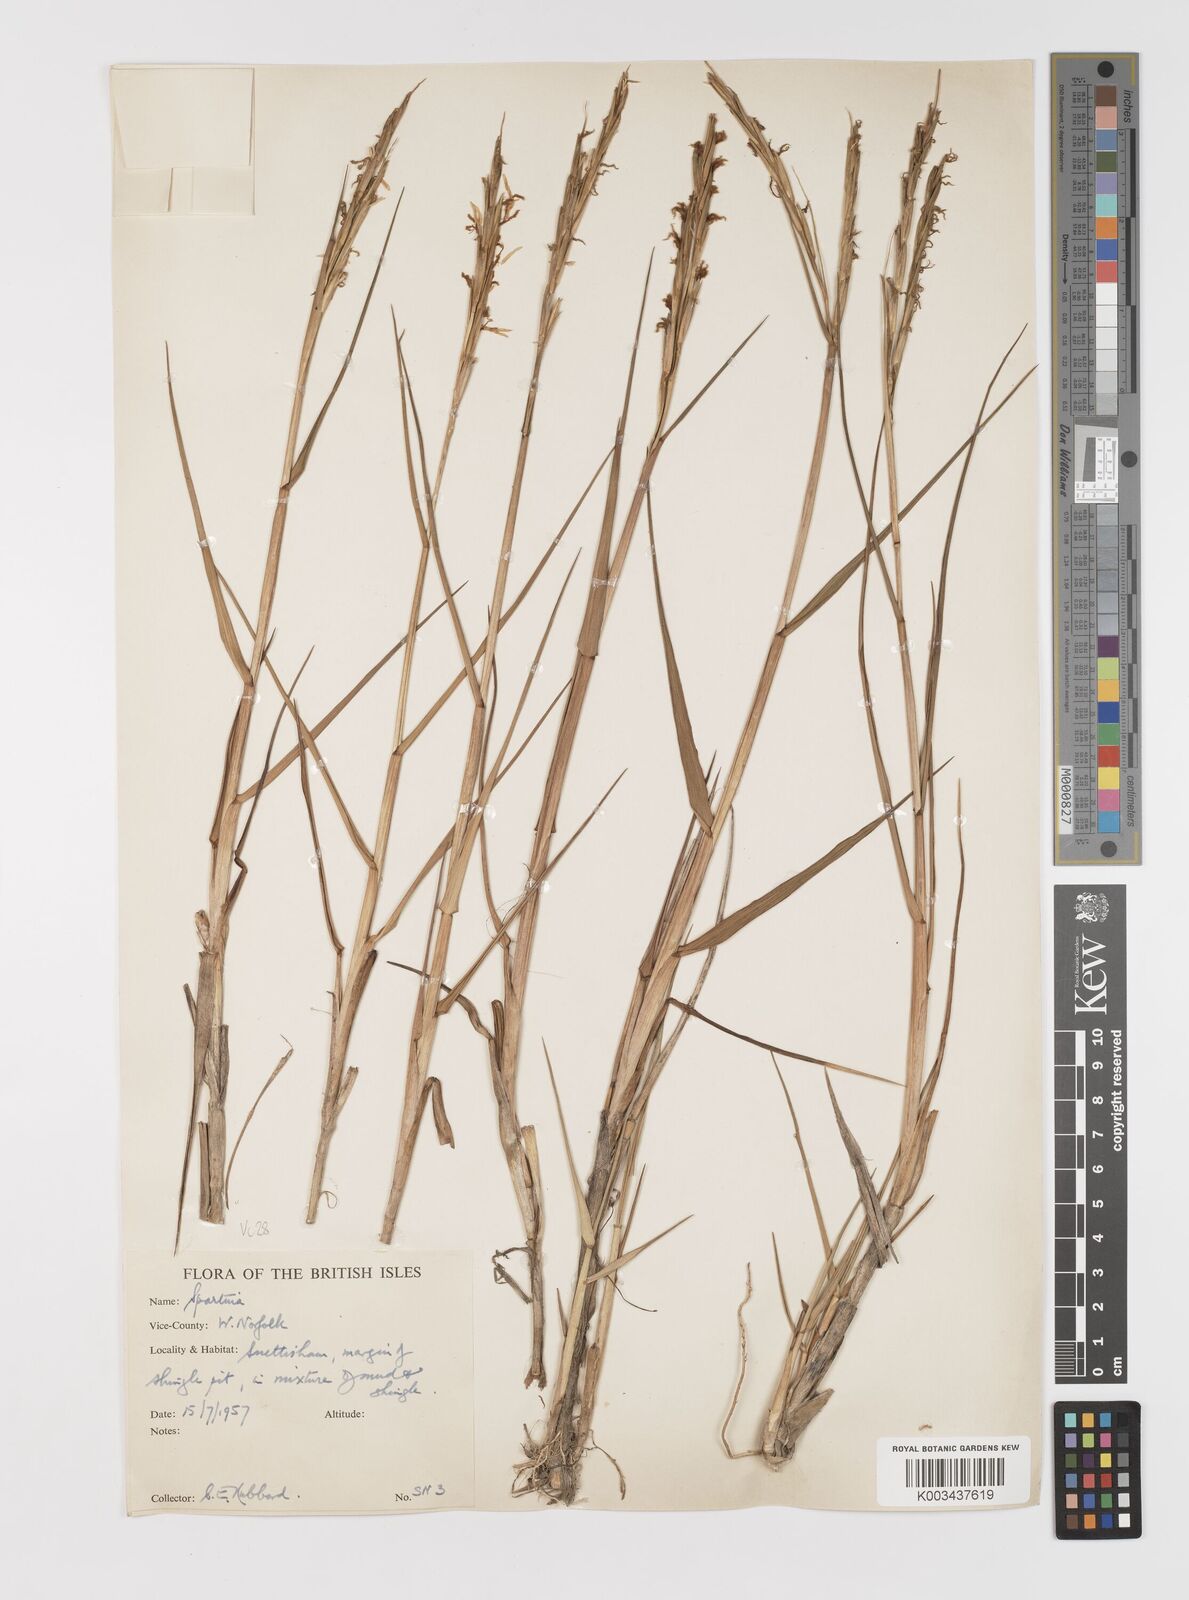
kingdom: Plantae
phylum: Tracheophyta
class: Liliopsida
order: Poales
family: Poaceae
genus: Sporobolus
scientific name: Sporobolus anglicus
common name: English cordgrass
